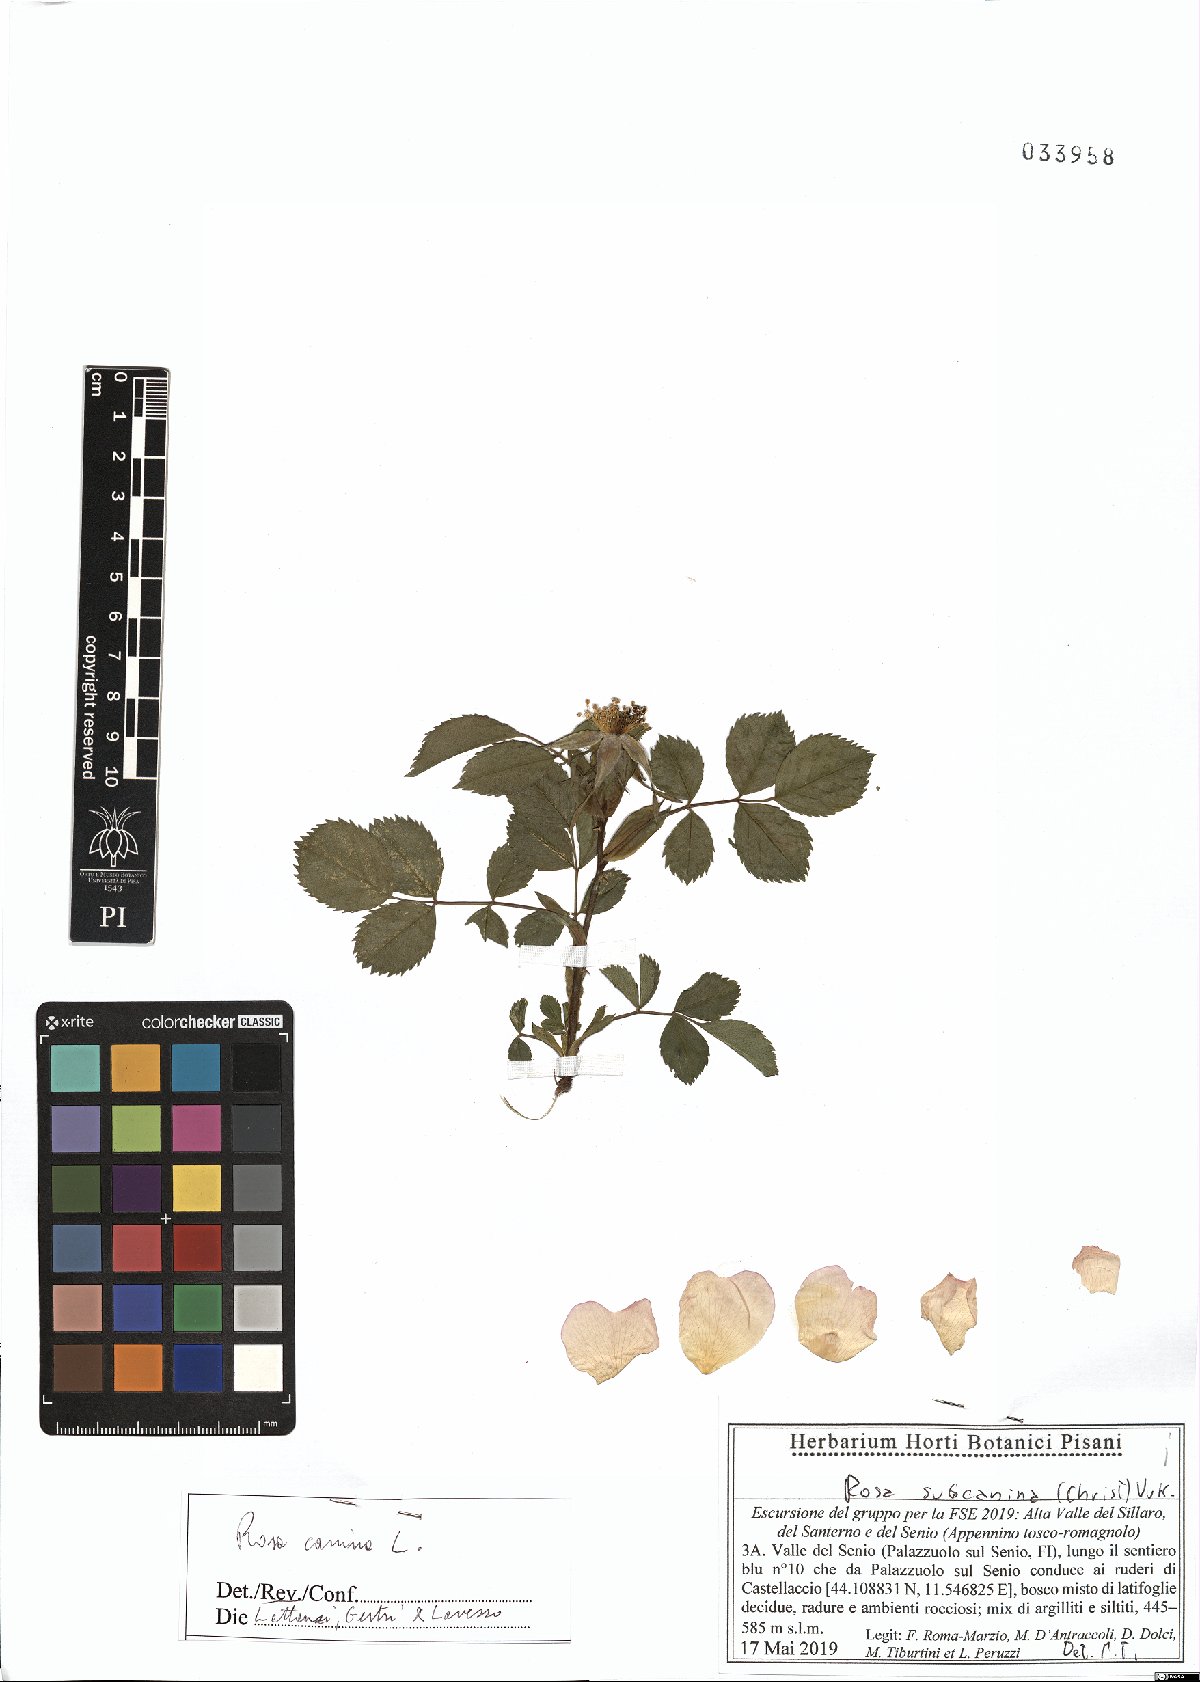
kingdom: Plantae
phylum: Tracheophyta
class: Magnoliopsida
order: Rosales
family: Rosaceae
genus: Rosa
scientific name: Rosa canina
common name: Dog rose
